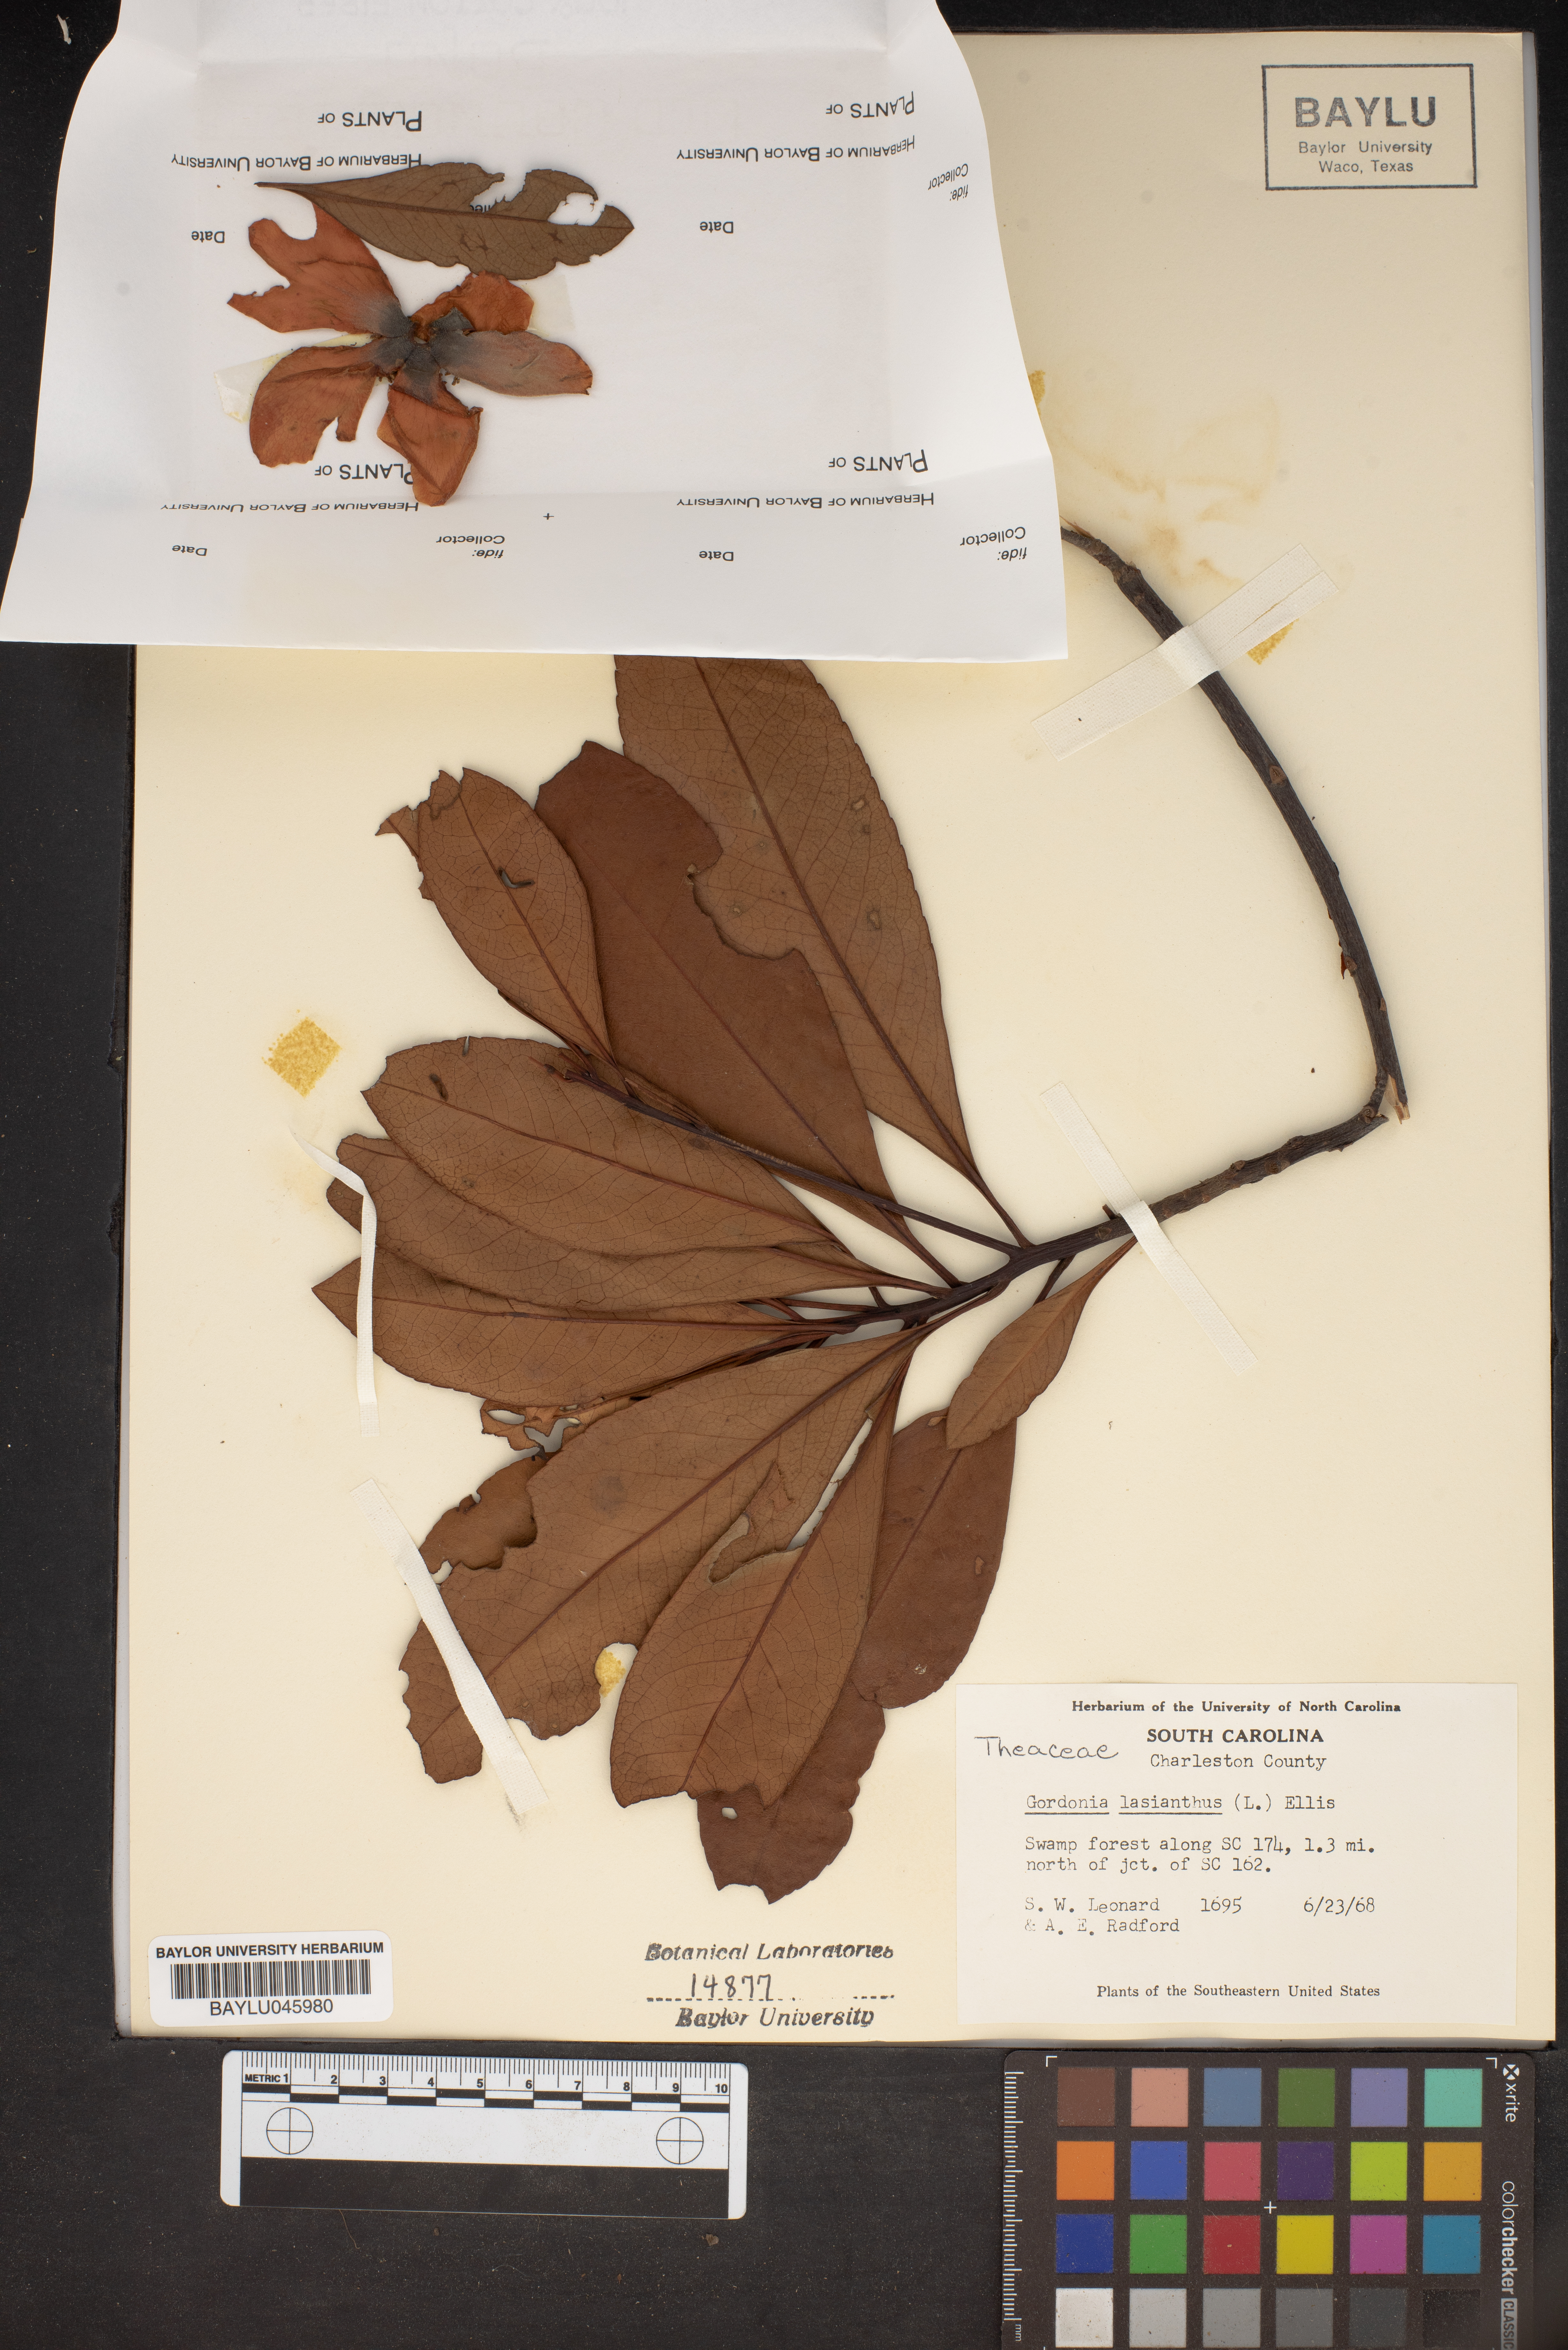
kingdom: Plantae
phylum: Tracheophyta
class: Magnoliopsida
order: Ericales
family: Theaceae
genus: Gordonia
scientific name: Gordonia lasianthus
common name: Loblolly bay
